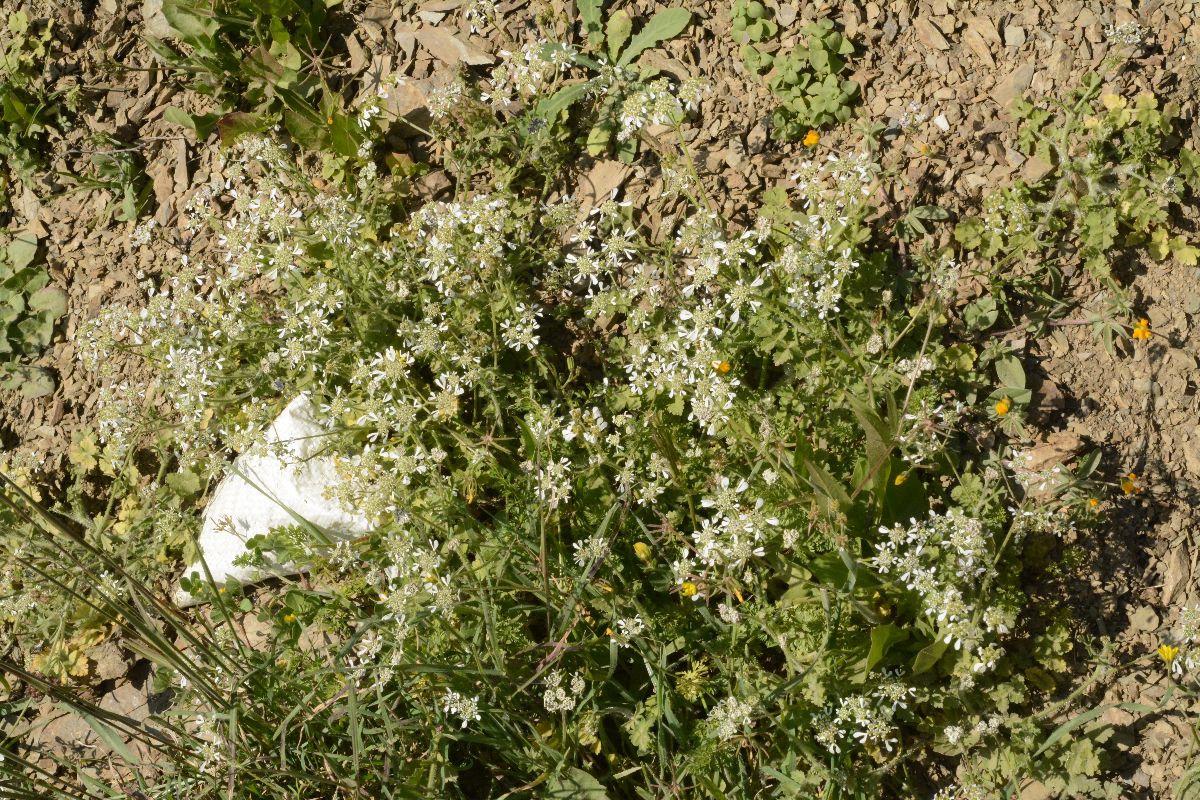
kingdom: Plantae
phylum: Tracheophyta
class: Magnoliopsida
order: Apiales
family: Apiaceae
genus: Tordylium
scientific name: Tordylium apulum
